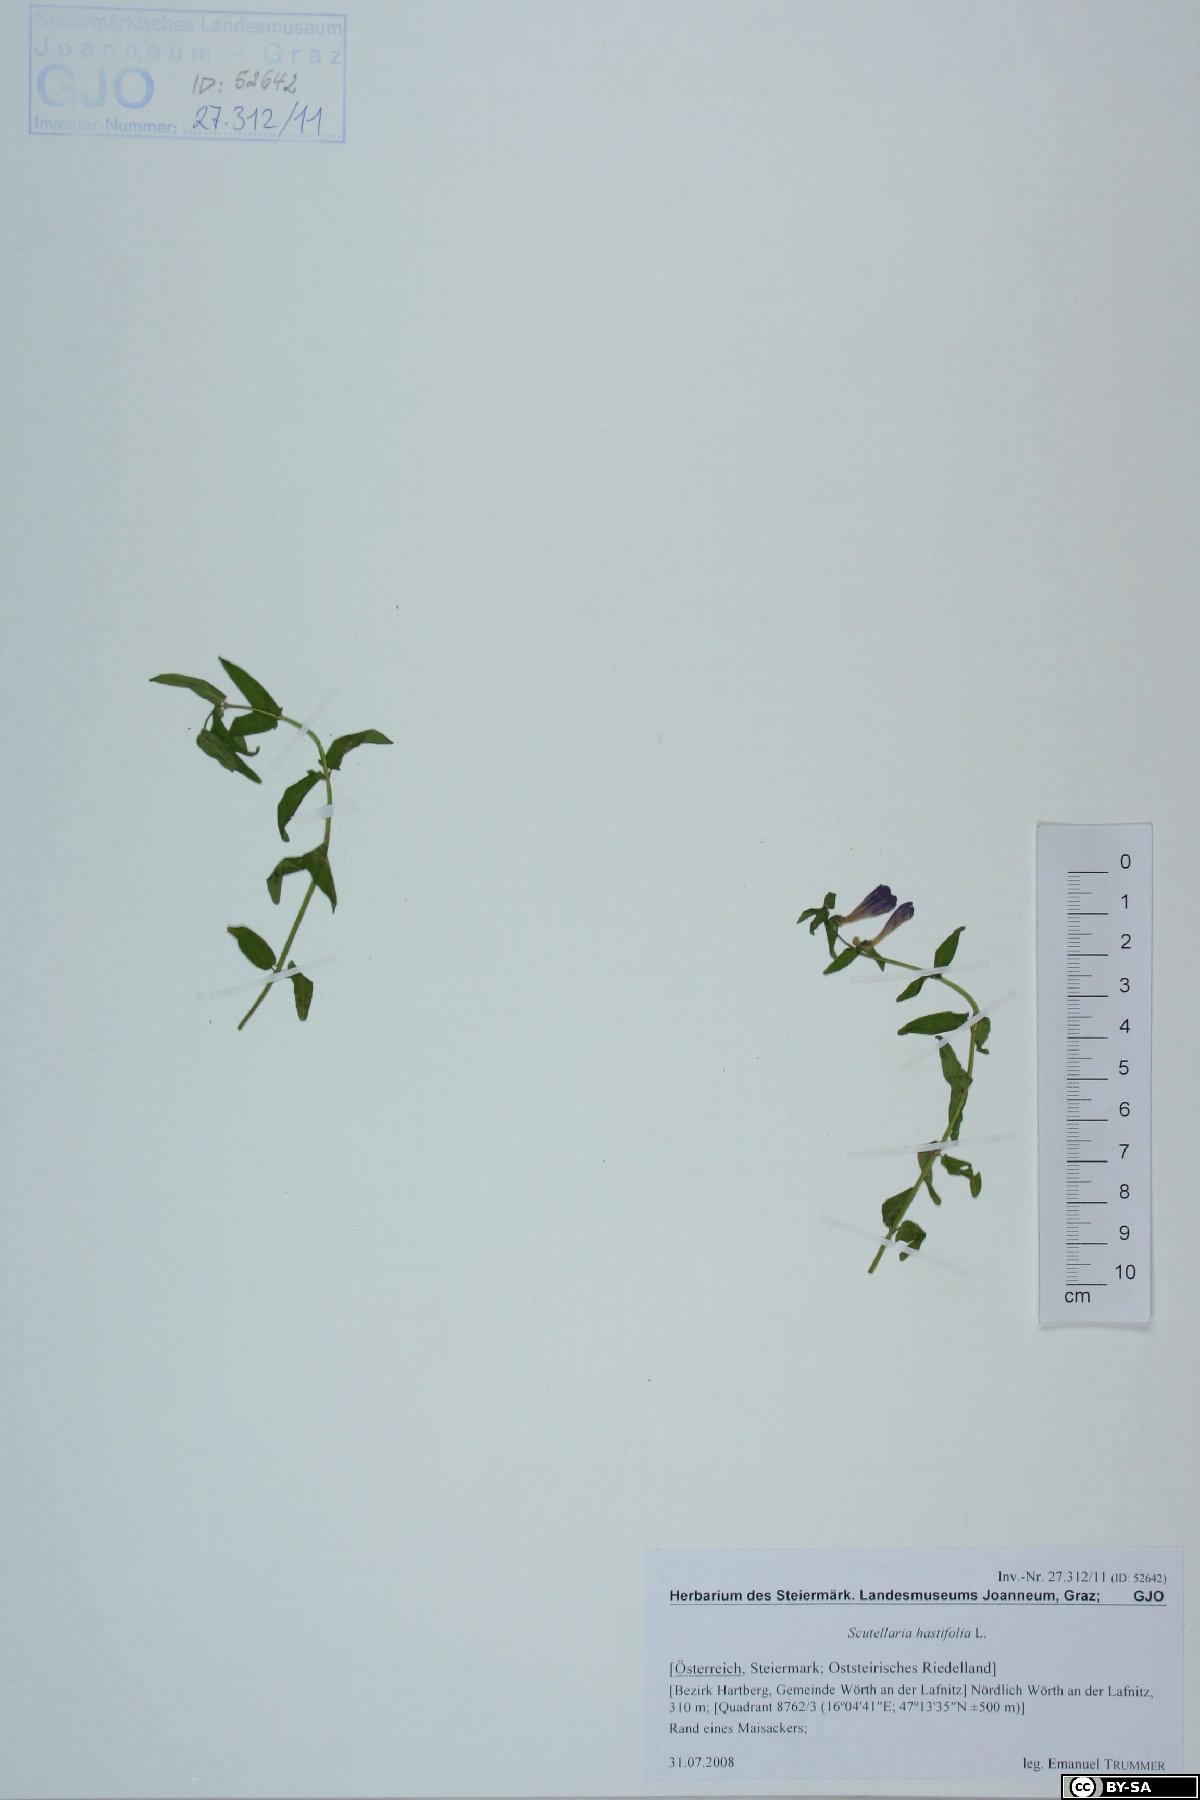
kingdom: Plantae
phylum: Tracheophyta
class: Magnoliopsida
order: Lamiales
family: Lamiaceae
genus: Scutellaria
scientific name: Scutellaria hastifolia
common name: Norfolk skullcap
